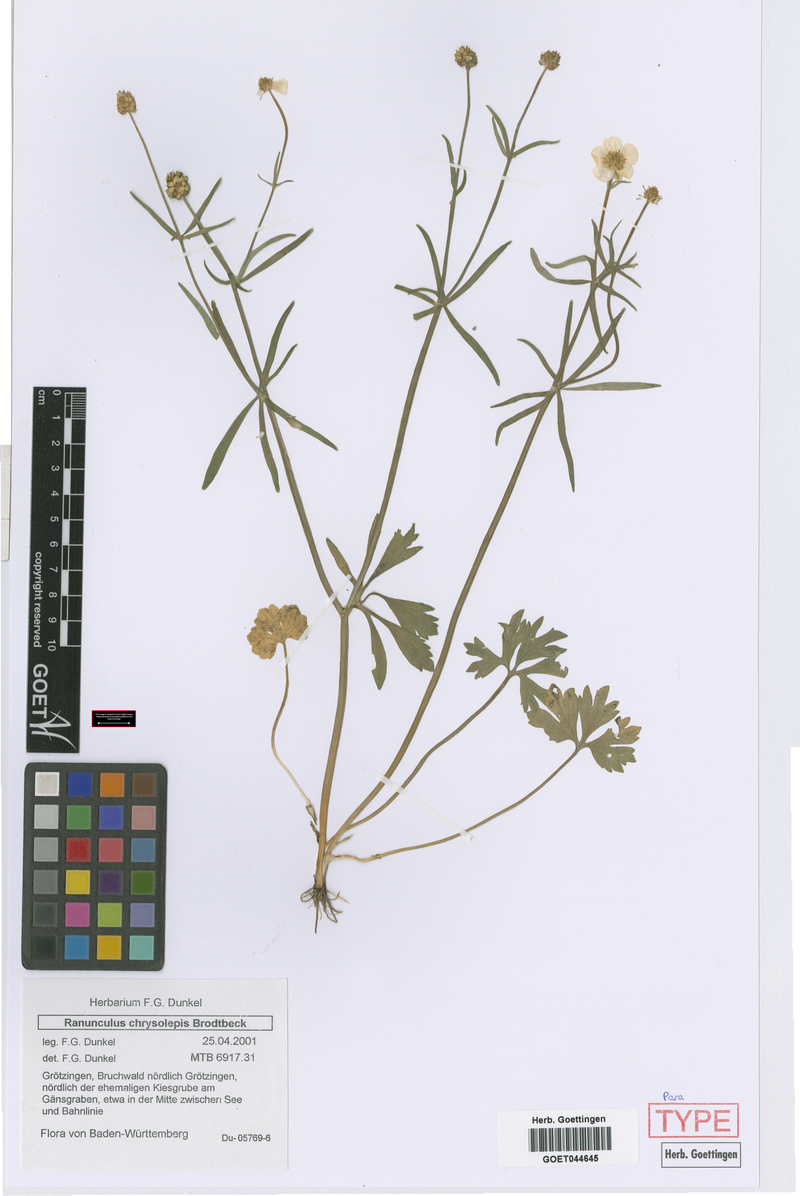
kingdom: Plantae
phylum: Tracheophyta
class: Magnoliopsida
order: Ranunculales
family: Ranunculaceae
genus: Ranunculus
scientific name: Ranunculus chrysoleptos
